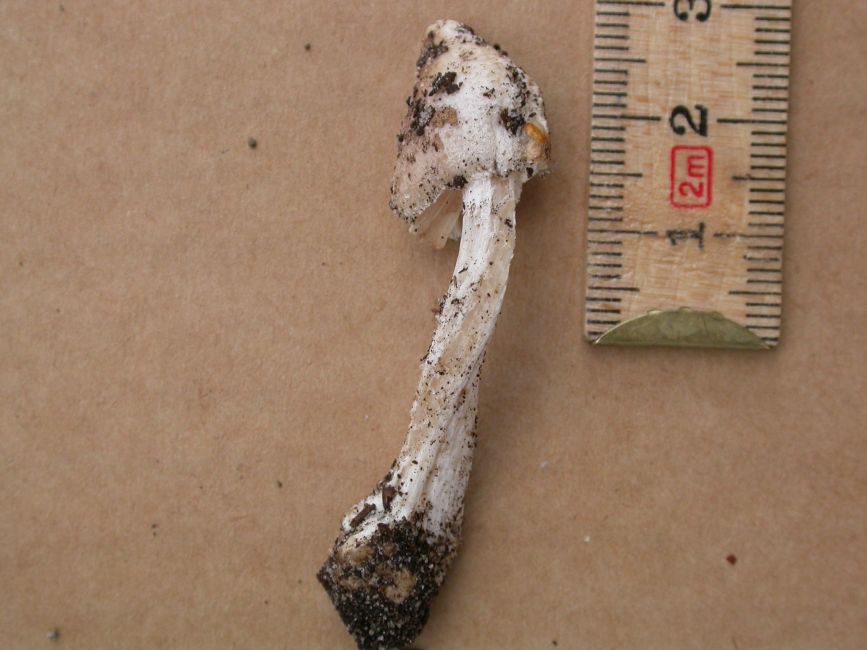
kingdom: Fungi
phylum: Basidiomycota
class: Agaricomycetes
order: Agaricales
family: Inocybaceae
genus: Pseudosperma
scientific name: Pseudosperma rimosum
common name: gulbladet trævlhat
